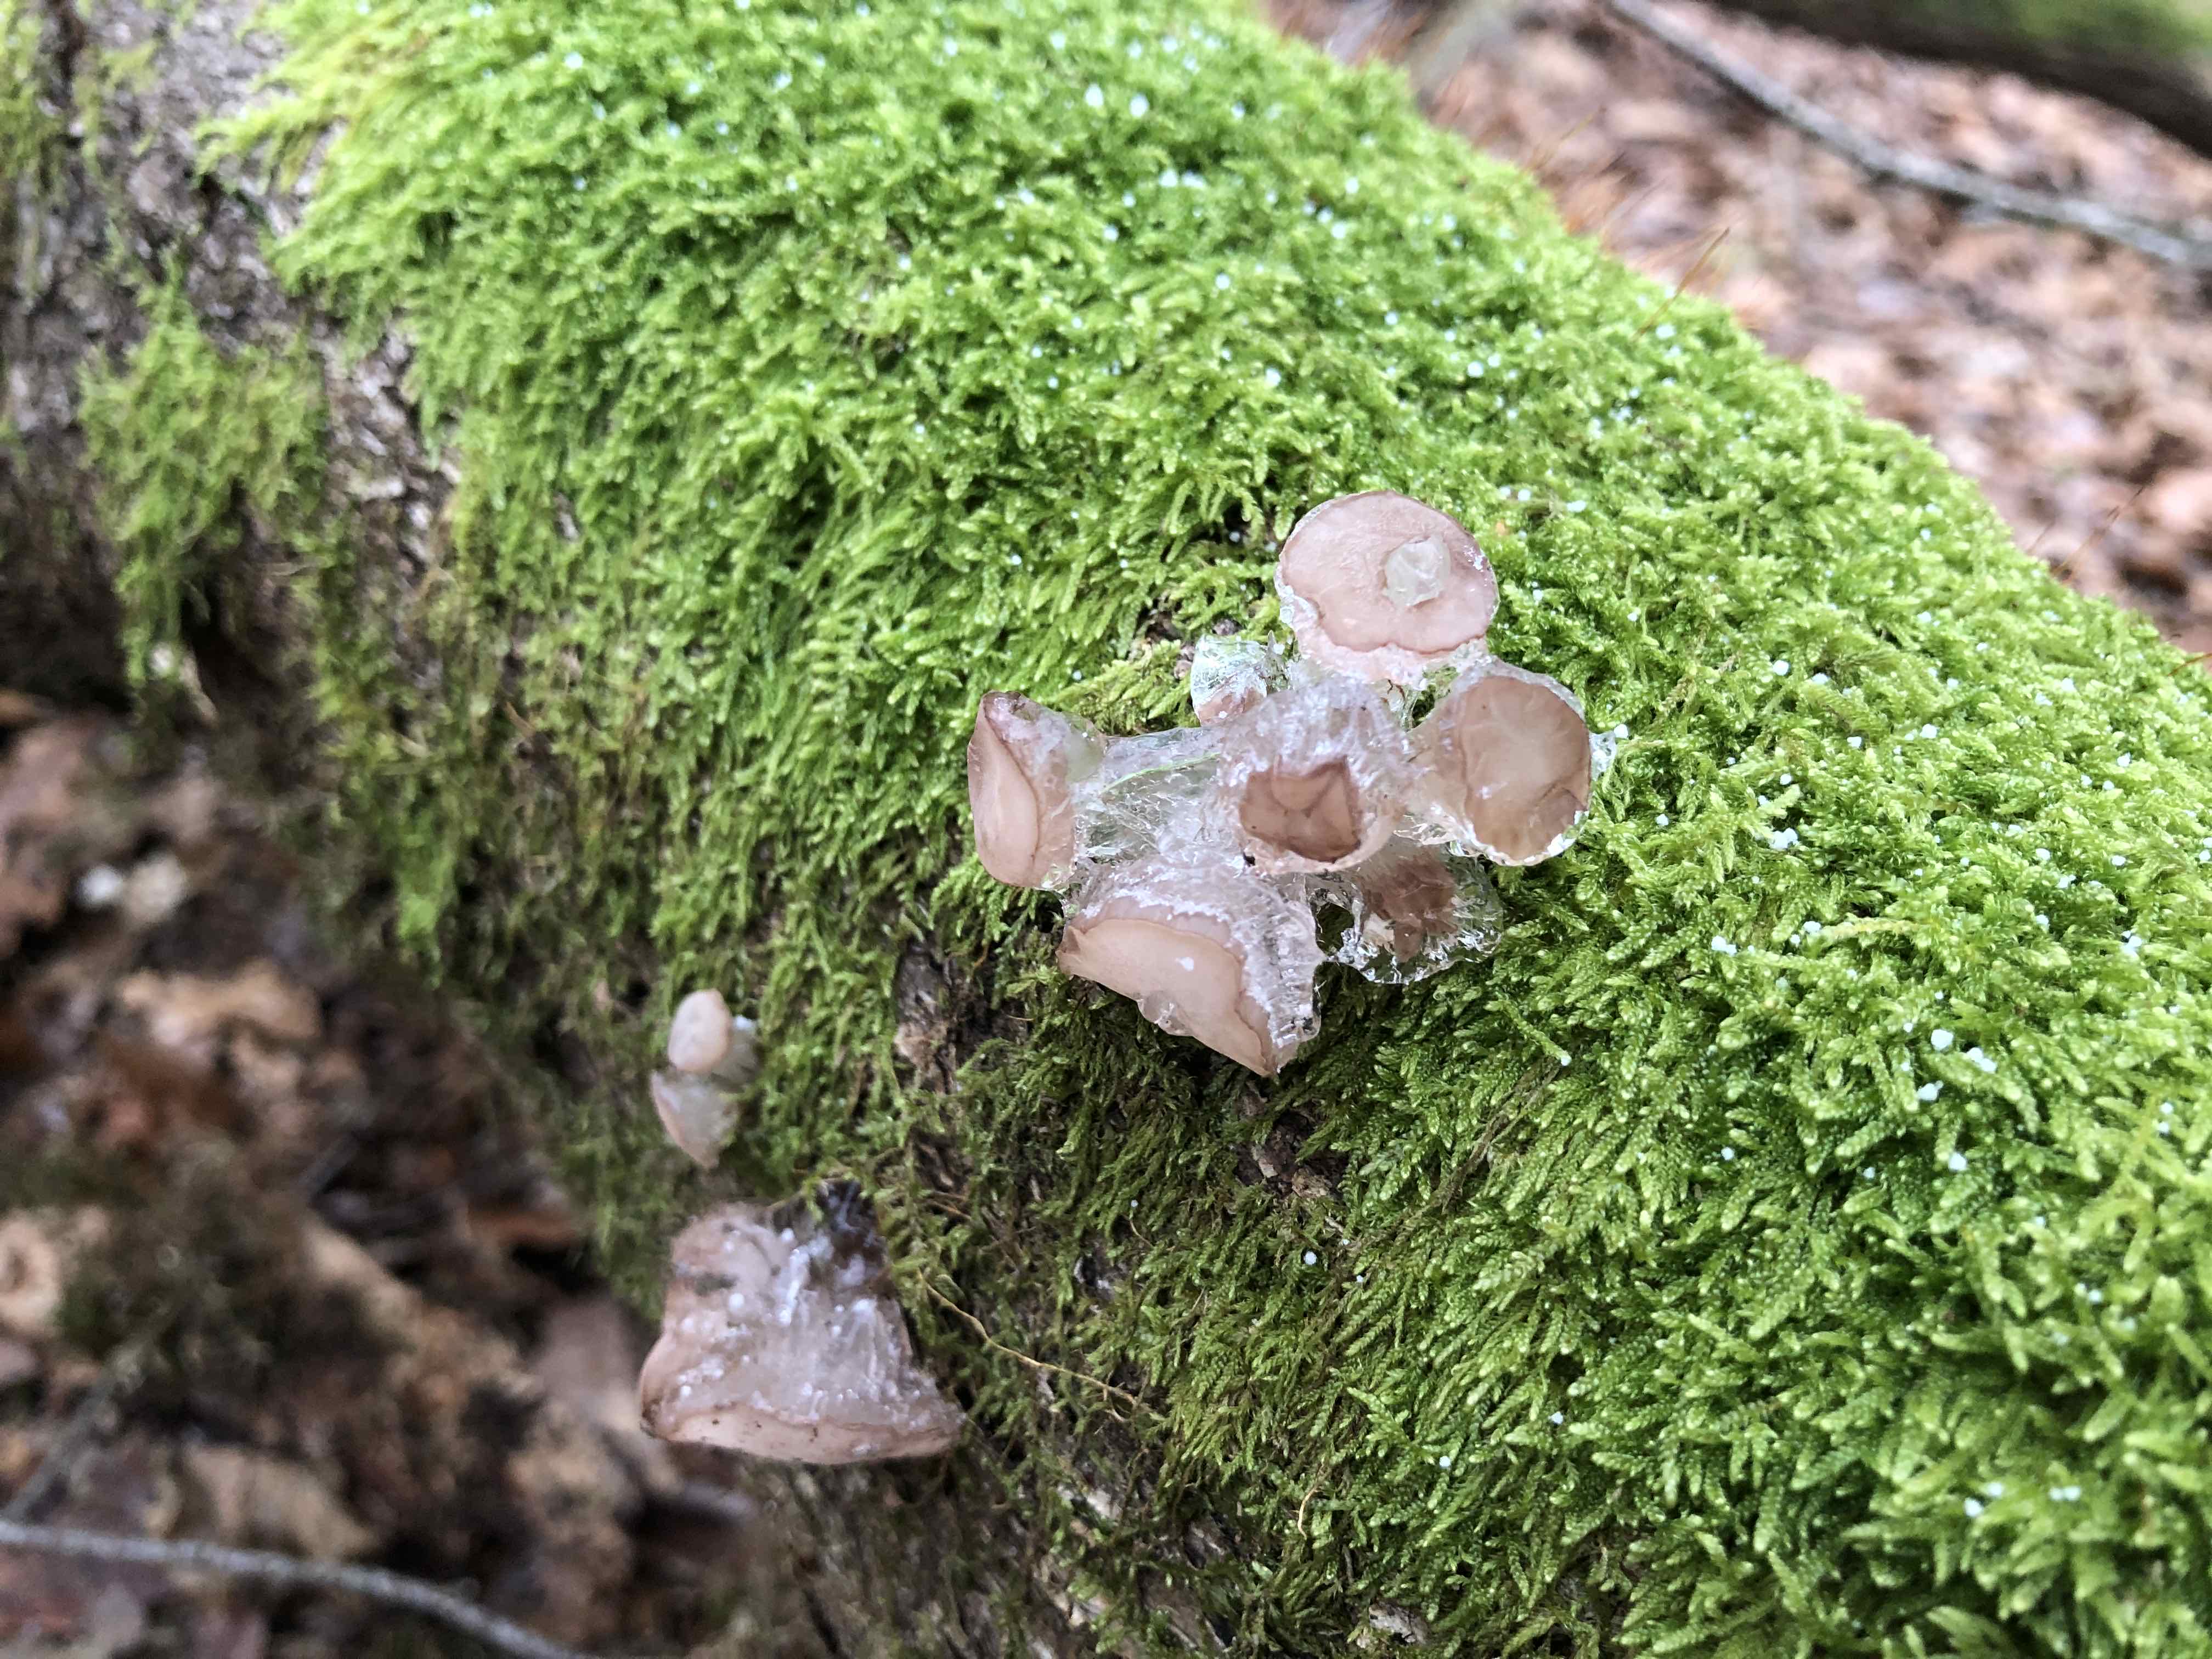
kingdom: Fungi
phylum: Ascomycota
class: Leotiomycetes
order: Helotiales
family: Gelatinodiscaceae
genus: Neobulgaria
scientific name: Neobulgaria pura
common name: bleg bævreskive
